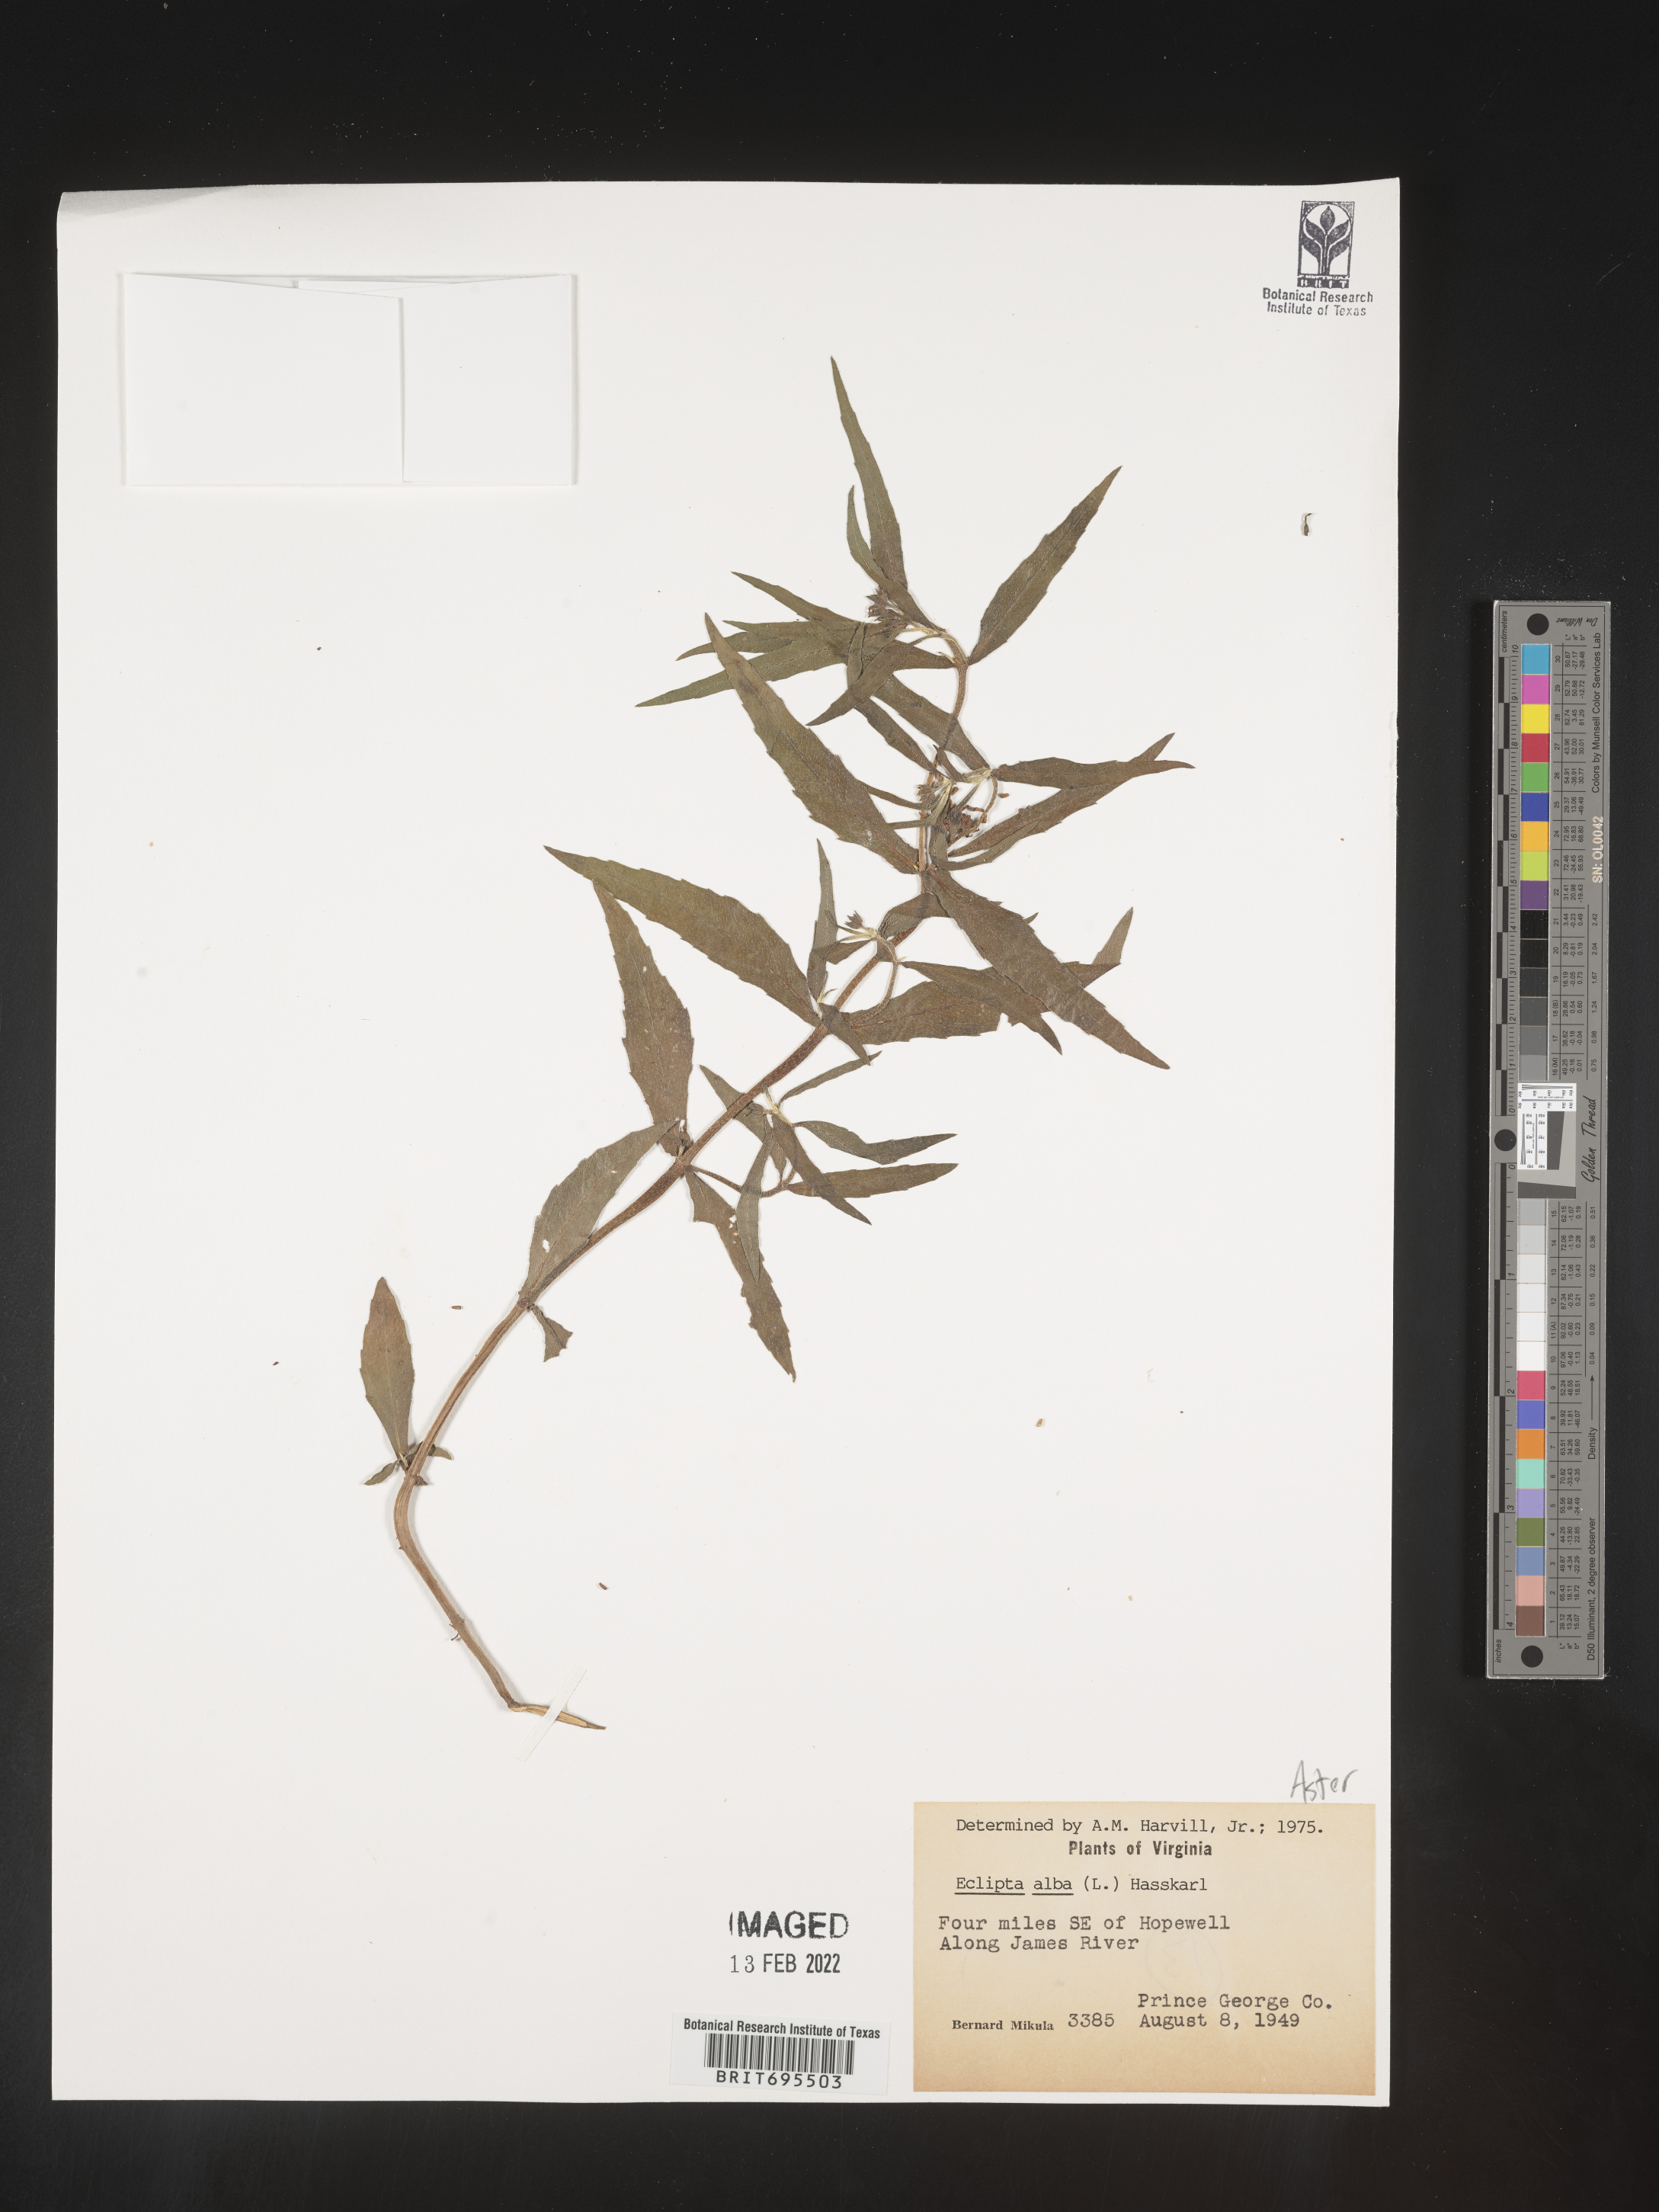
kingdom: Plantae
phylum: Tracheophyta
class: Magnoliopsida
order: Asterales
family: Asteraceae
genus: Eclipta
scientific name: Eclipta alba
